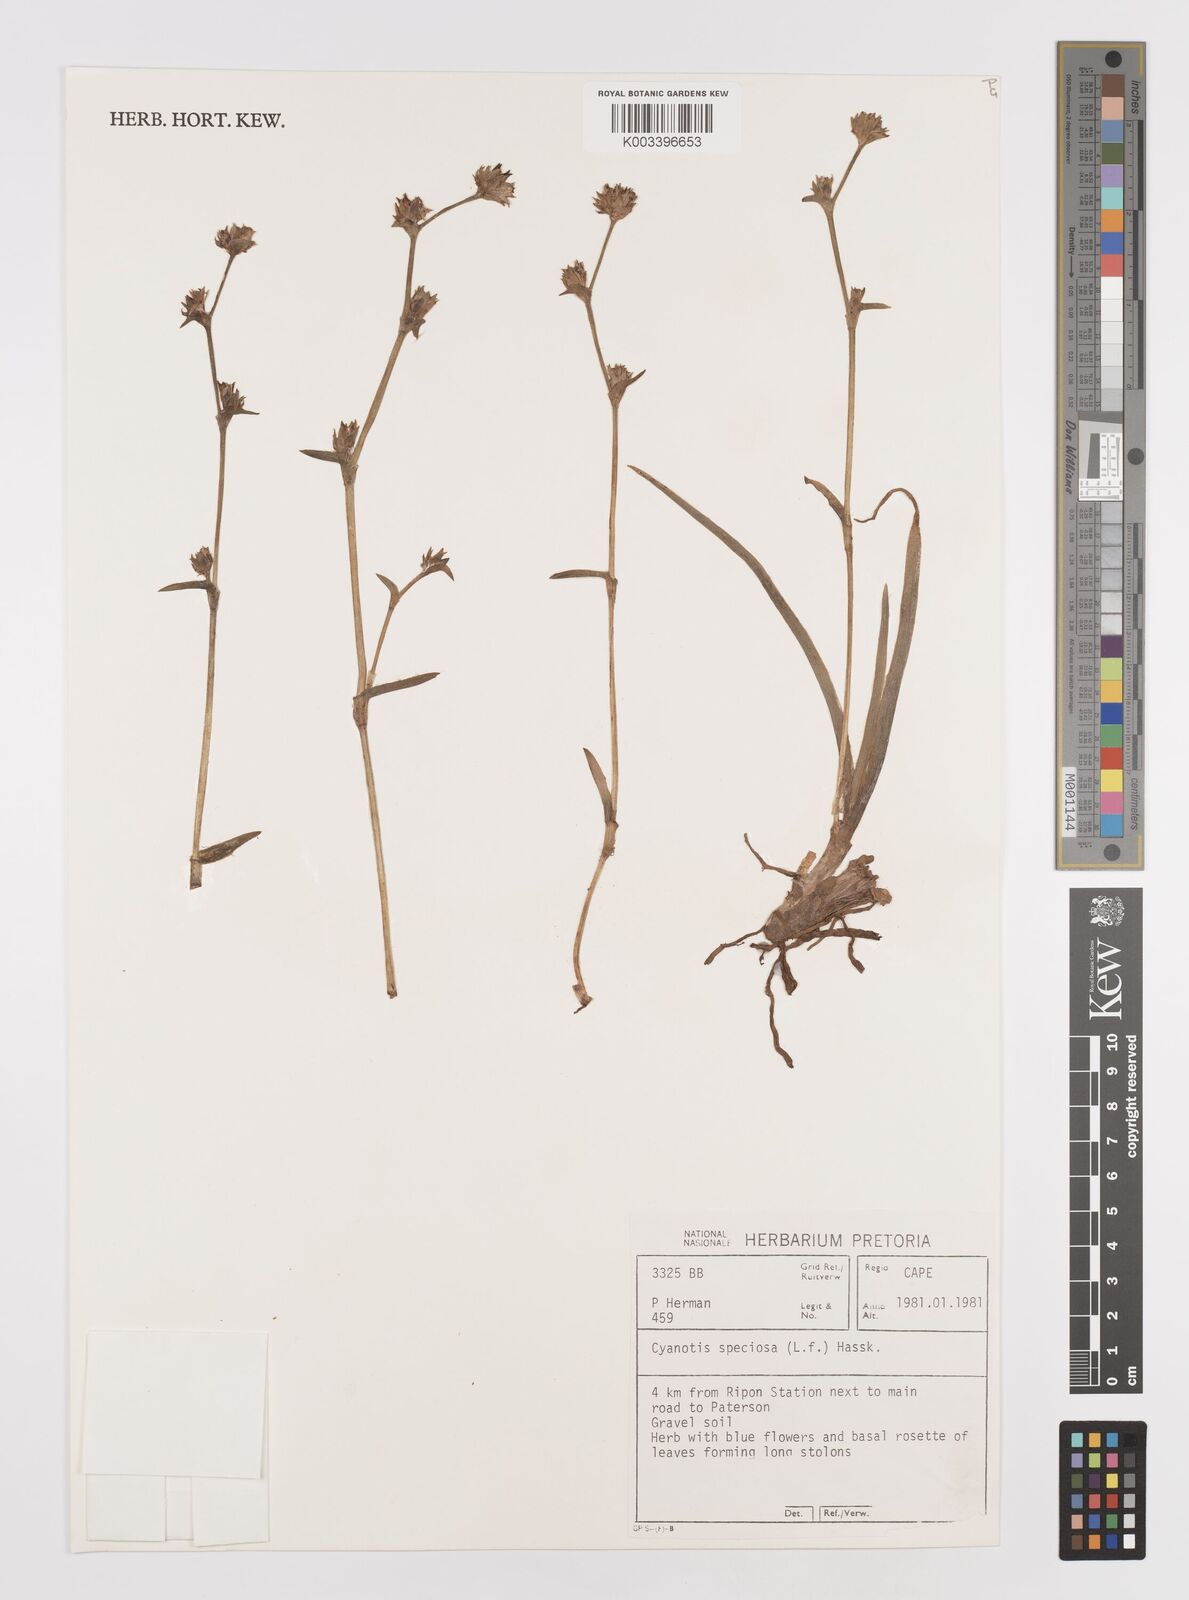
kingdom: Plantae
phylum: Tracheophyta
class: Liliopsida
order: Commelinales
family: Commelinaceae
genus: Cyanotis
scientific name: Cyanotis speciosa
